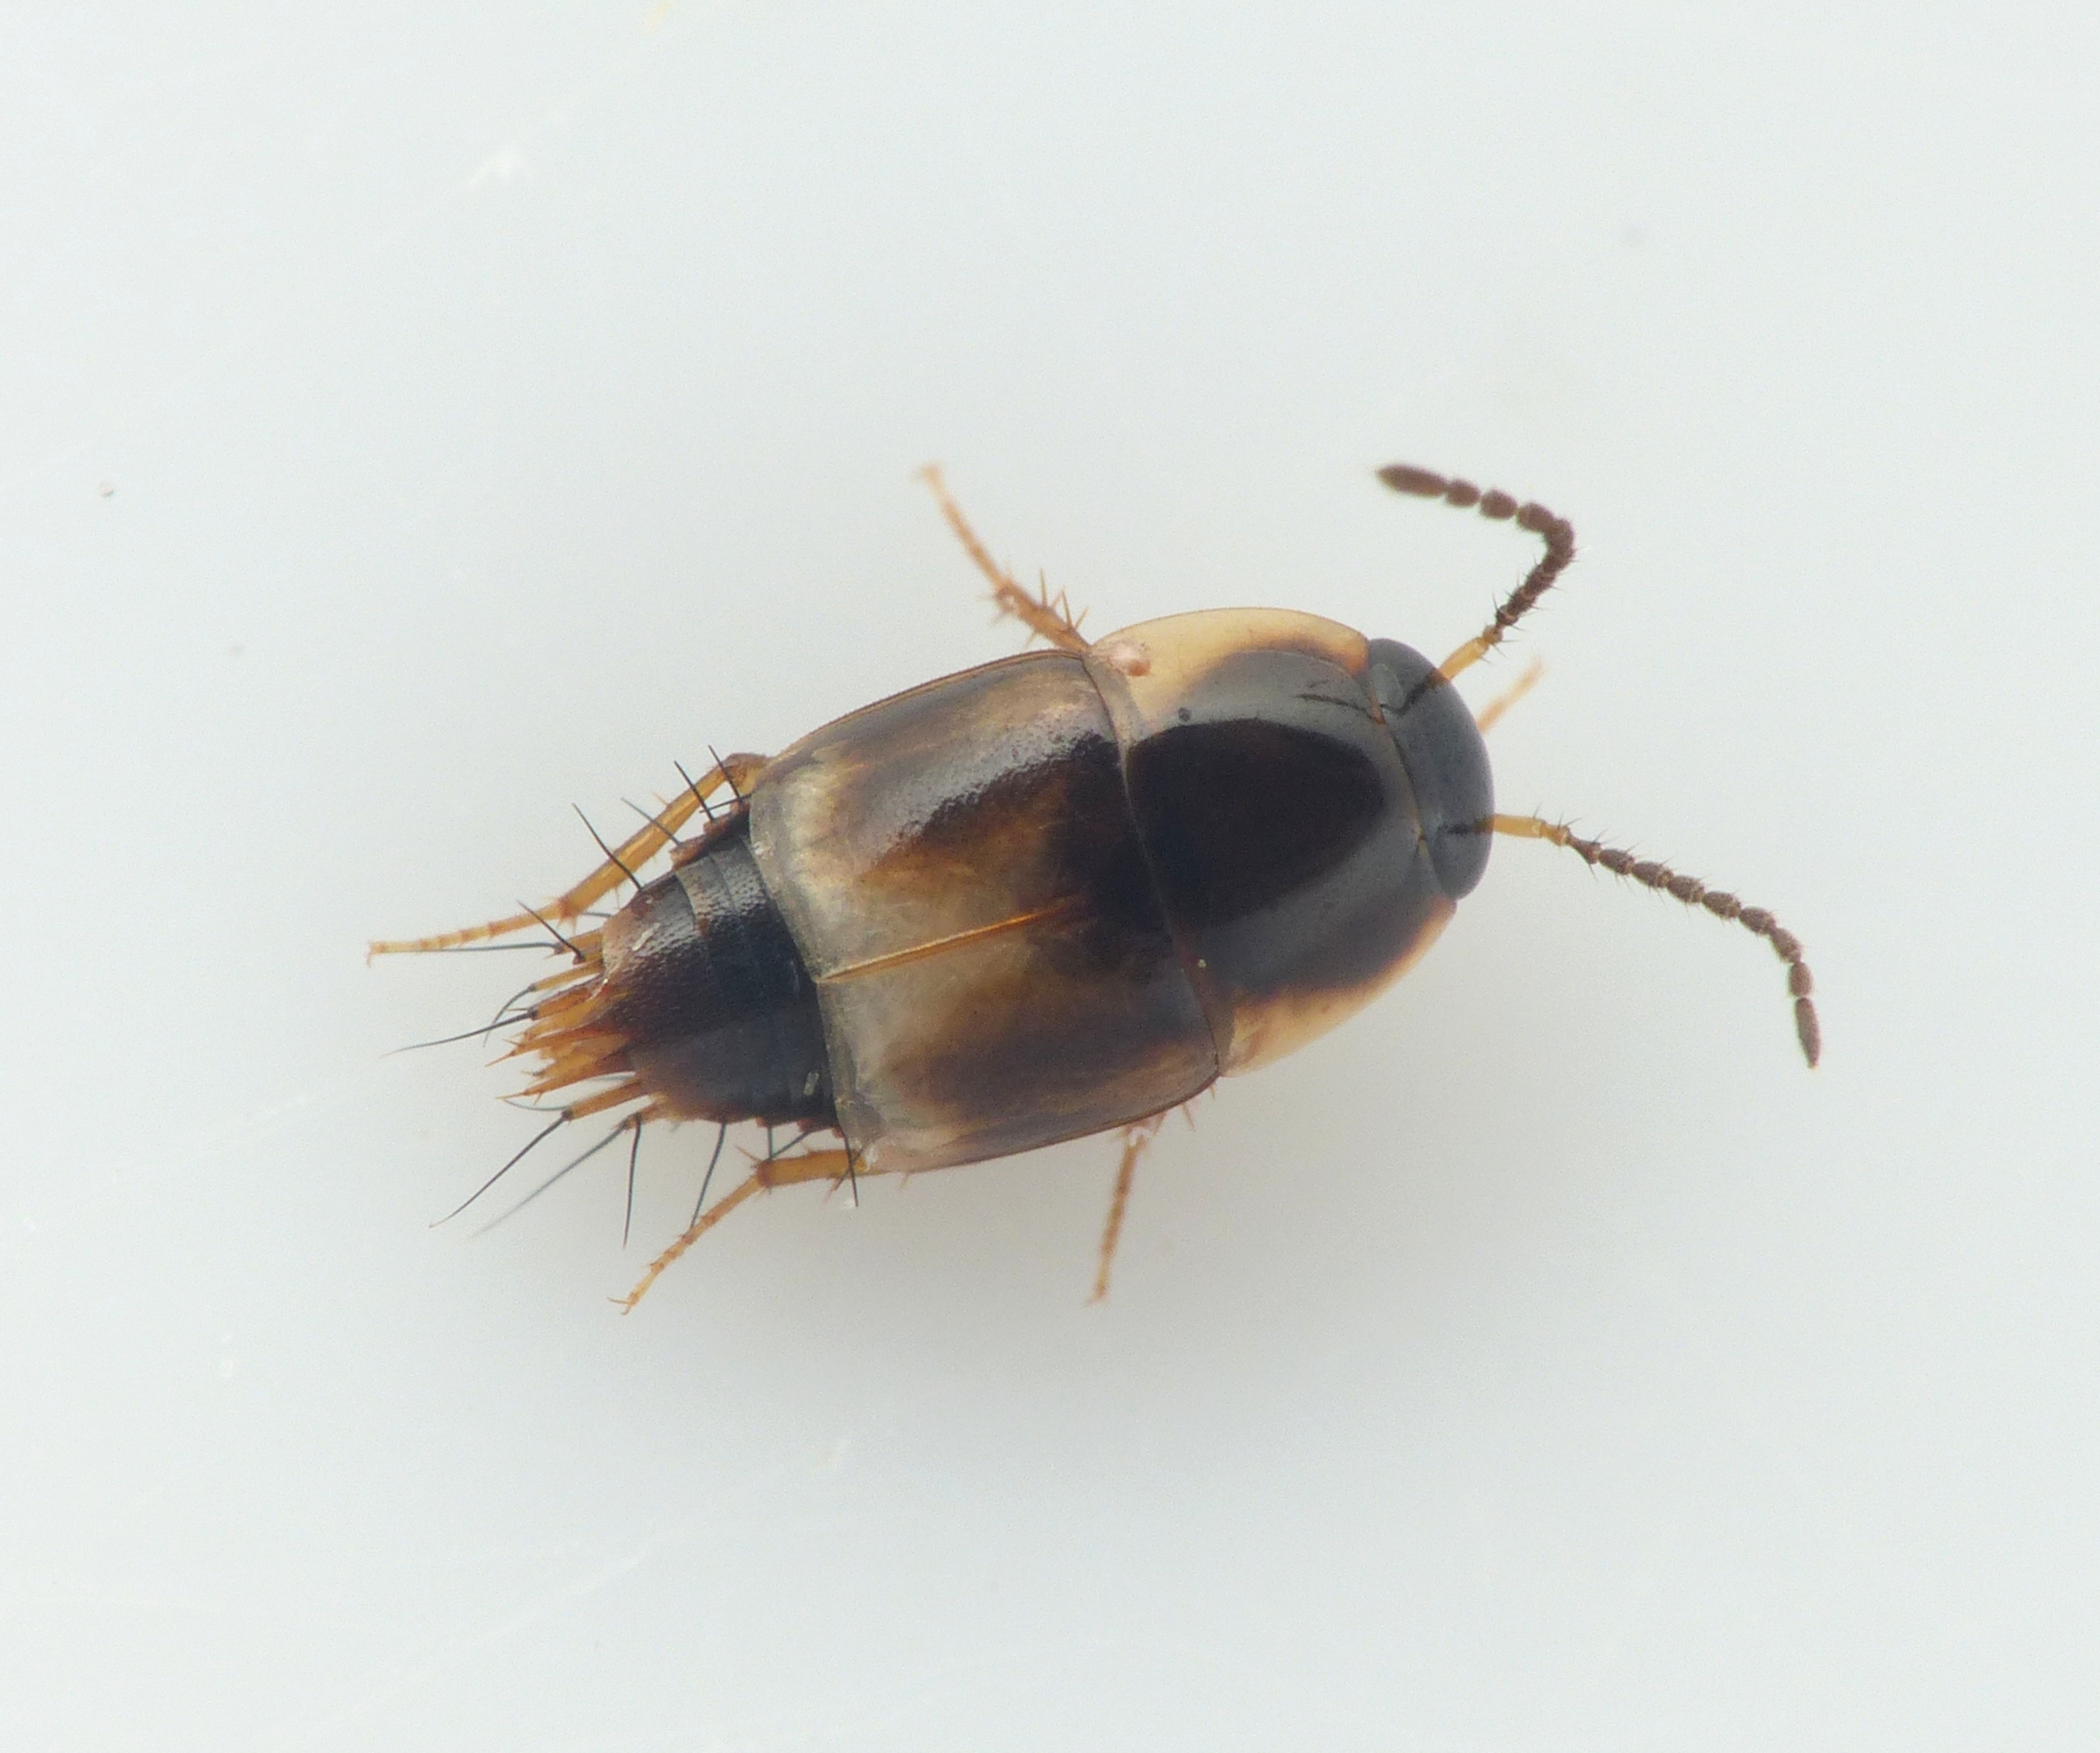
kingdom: Animalia
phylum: Arthropoda
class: Insecta
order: Coleoptera
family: Staphylinidae
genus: Cilea
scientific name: Cilea silphoides
